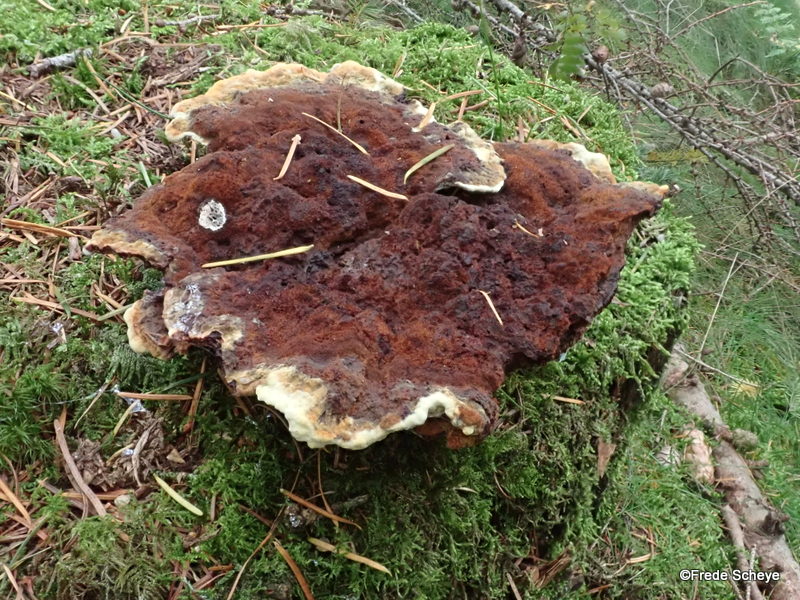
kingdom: Fungi
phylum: Basidiomycota
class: Agaricomycetes
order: Polyporales
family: Laetiporaceae
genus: Phaeolus
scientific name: Phaeolus schweinitzii
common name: brunporesvamp
